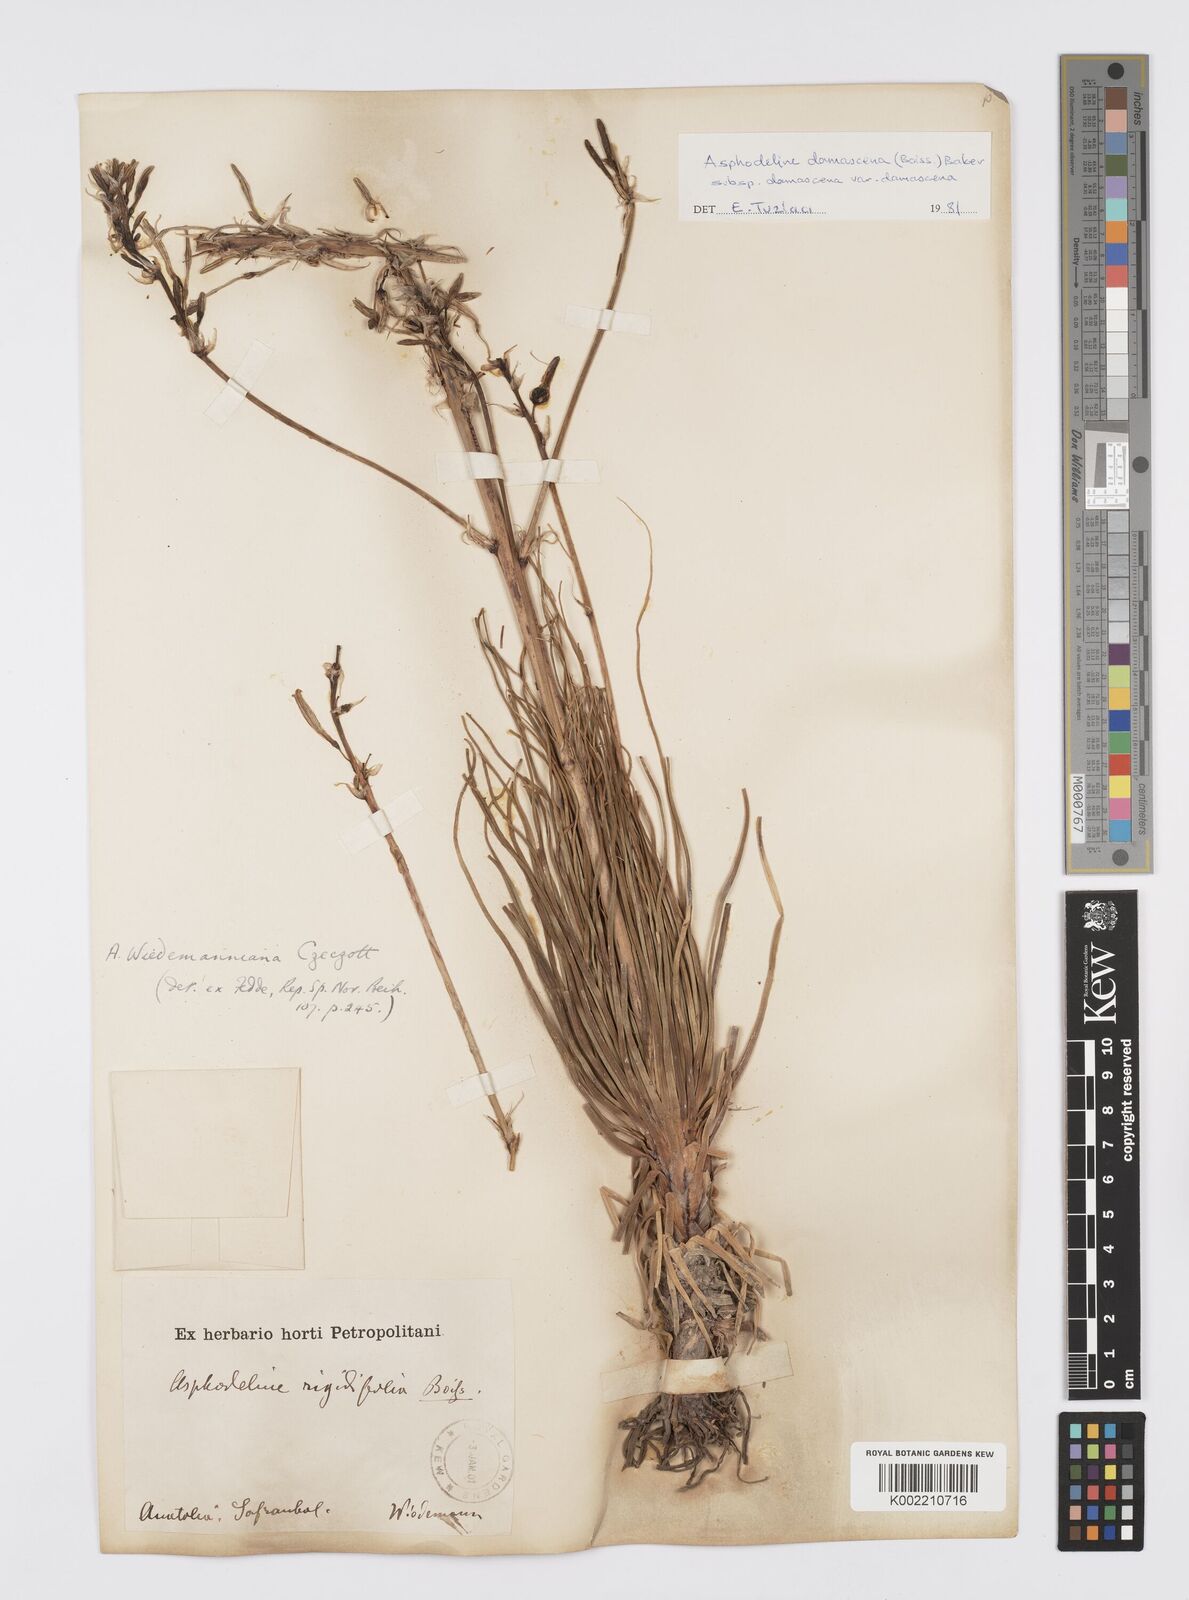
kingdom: Plantae
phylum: Tracheophyta
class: Liliopsida
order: Asparagales
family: Asphodelaceae
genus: Asphodeline
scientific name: Asphodeline damascena
